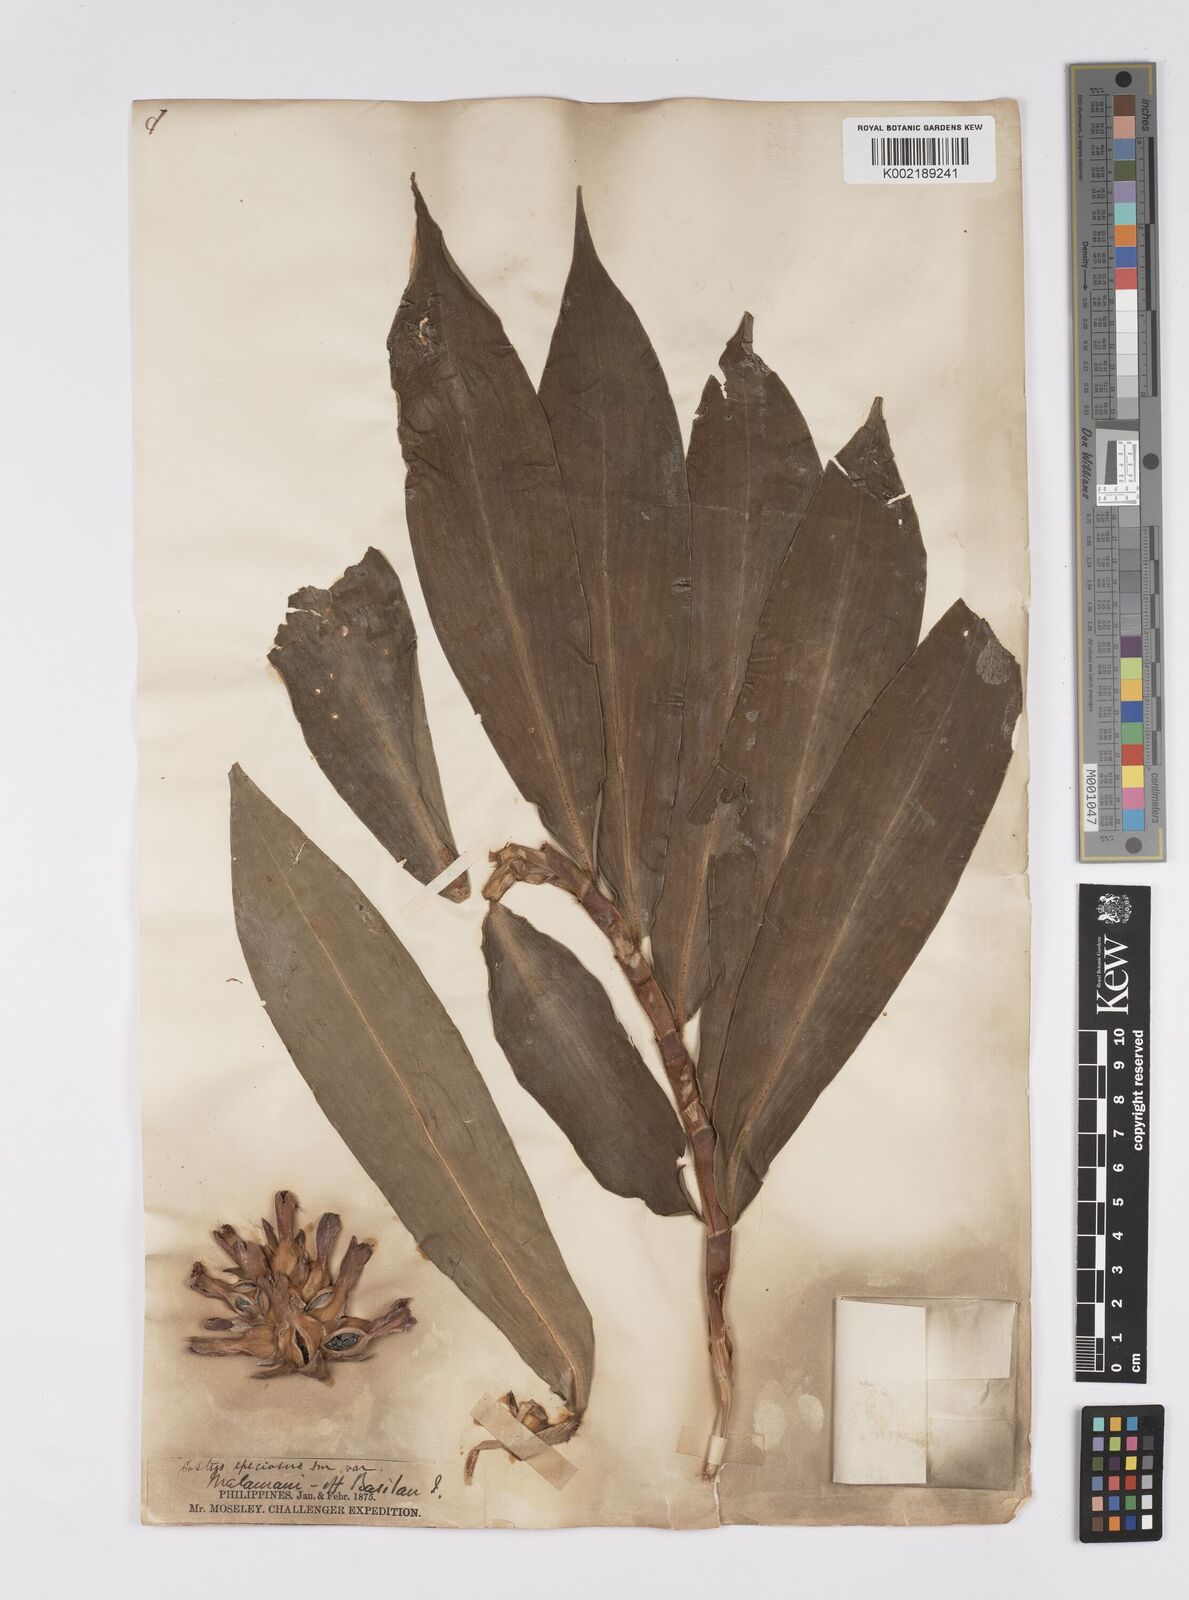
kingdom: Plantae
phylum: Tracheophyta
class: Liliopsida
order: Zingiberales
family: Costaceae
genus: Hellenia
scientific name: Hellenia speciosa
